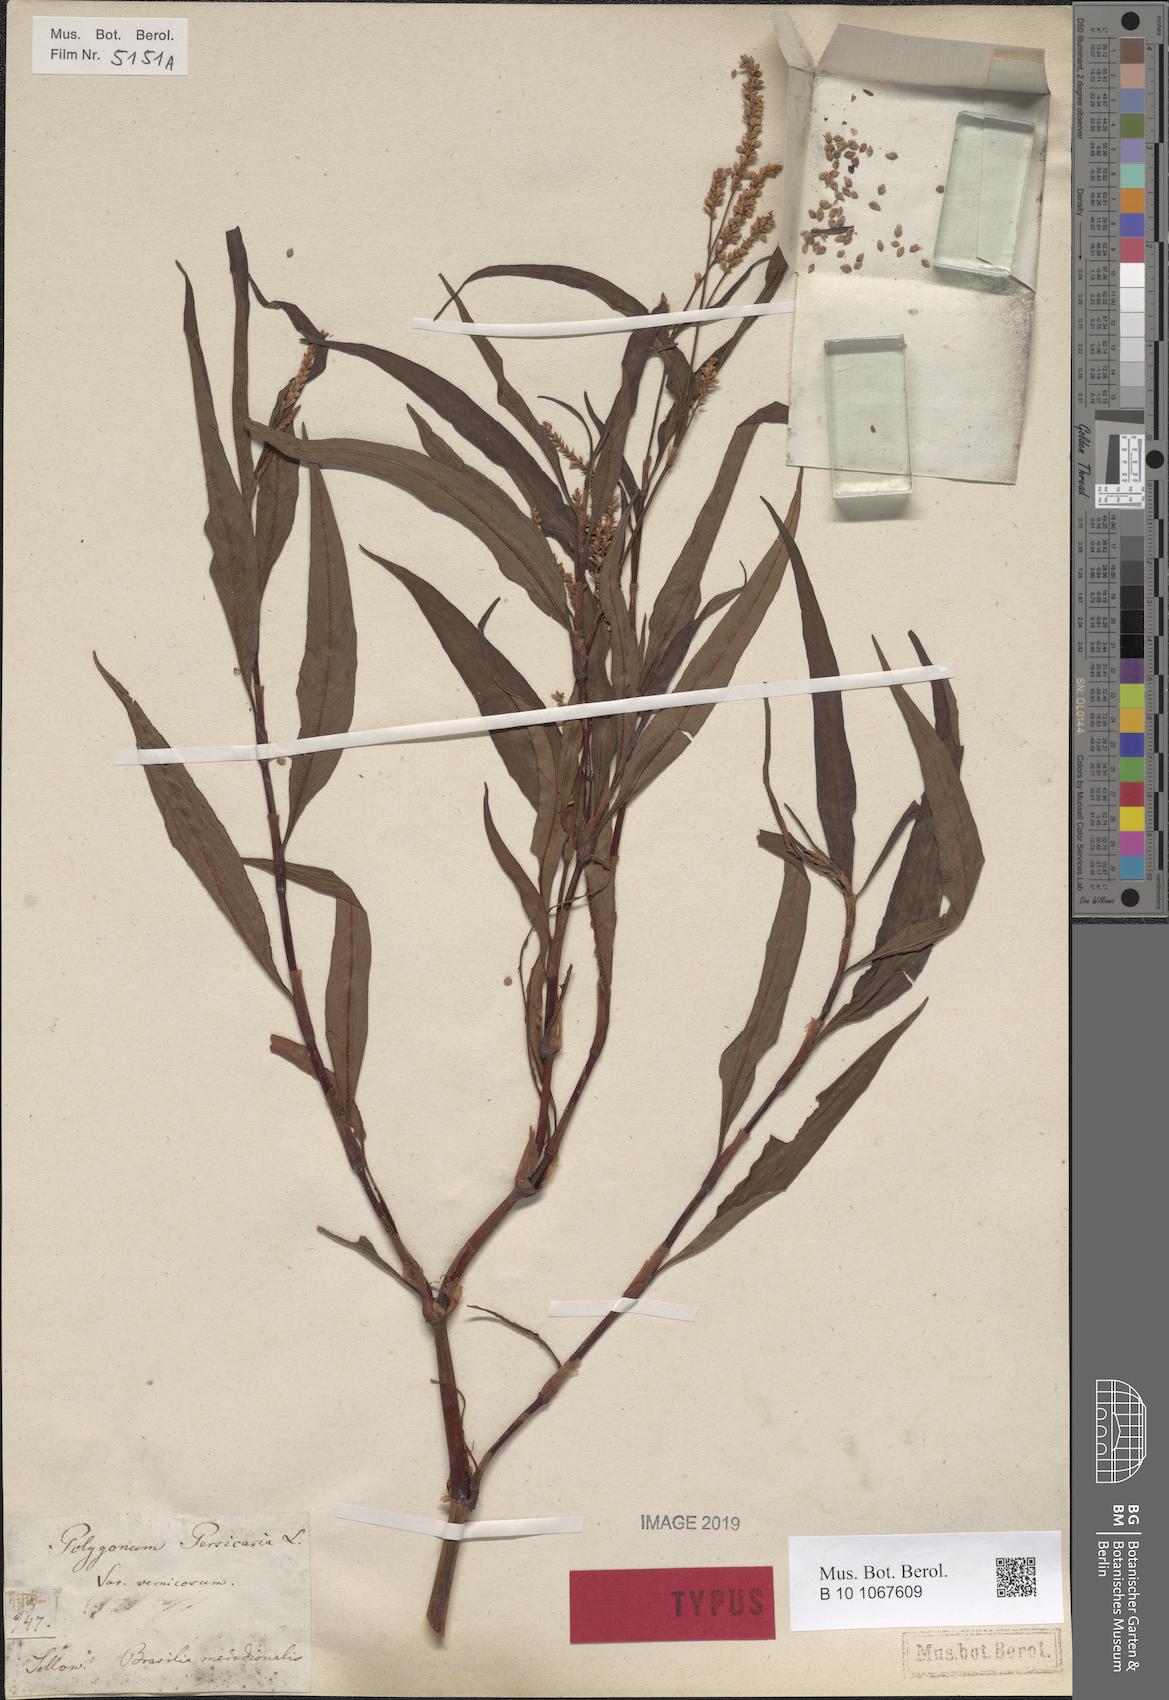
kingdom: Plantae
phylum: Tracheophyta
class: Magnoliopsida
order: Caryophyllales
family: Polygonaceae
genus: Persicaria
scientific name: Persicaria lapathifolia
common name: Curlytop knotweed
